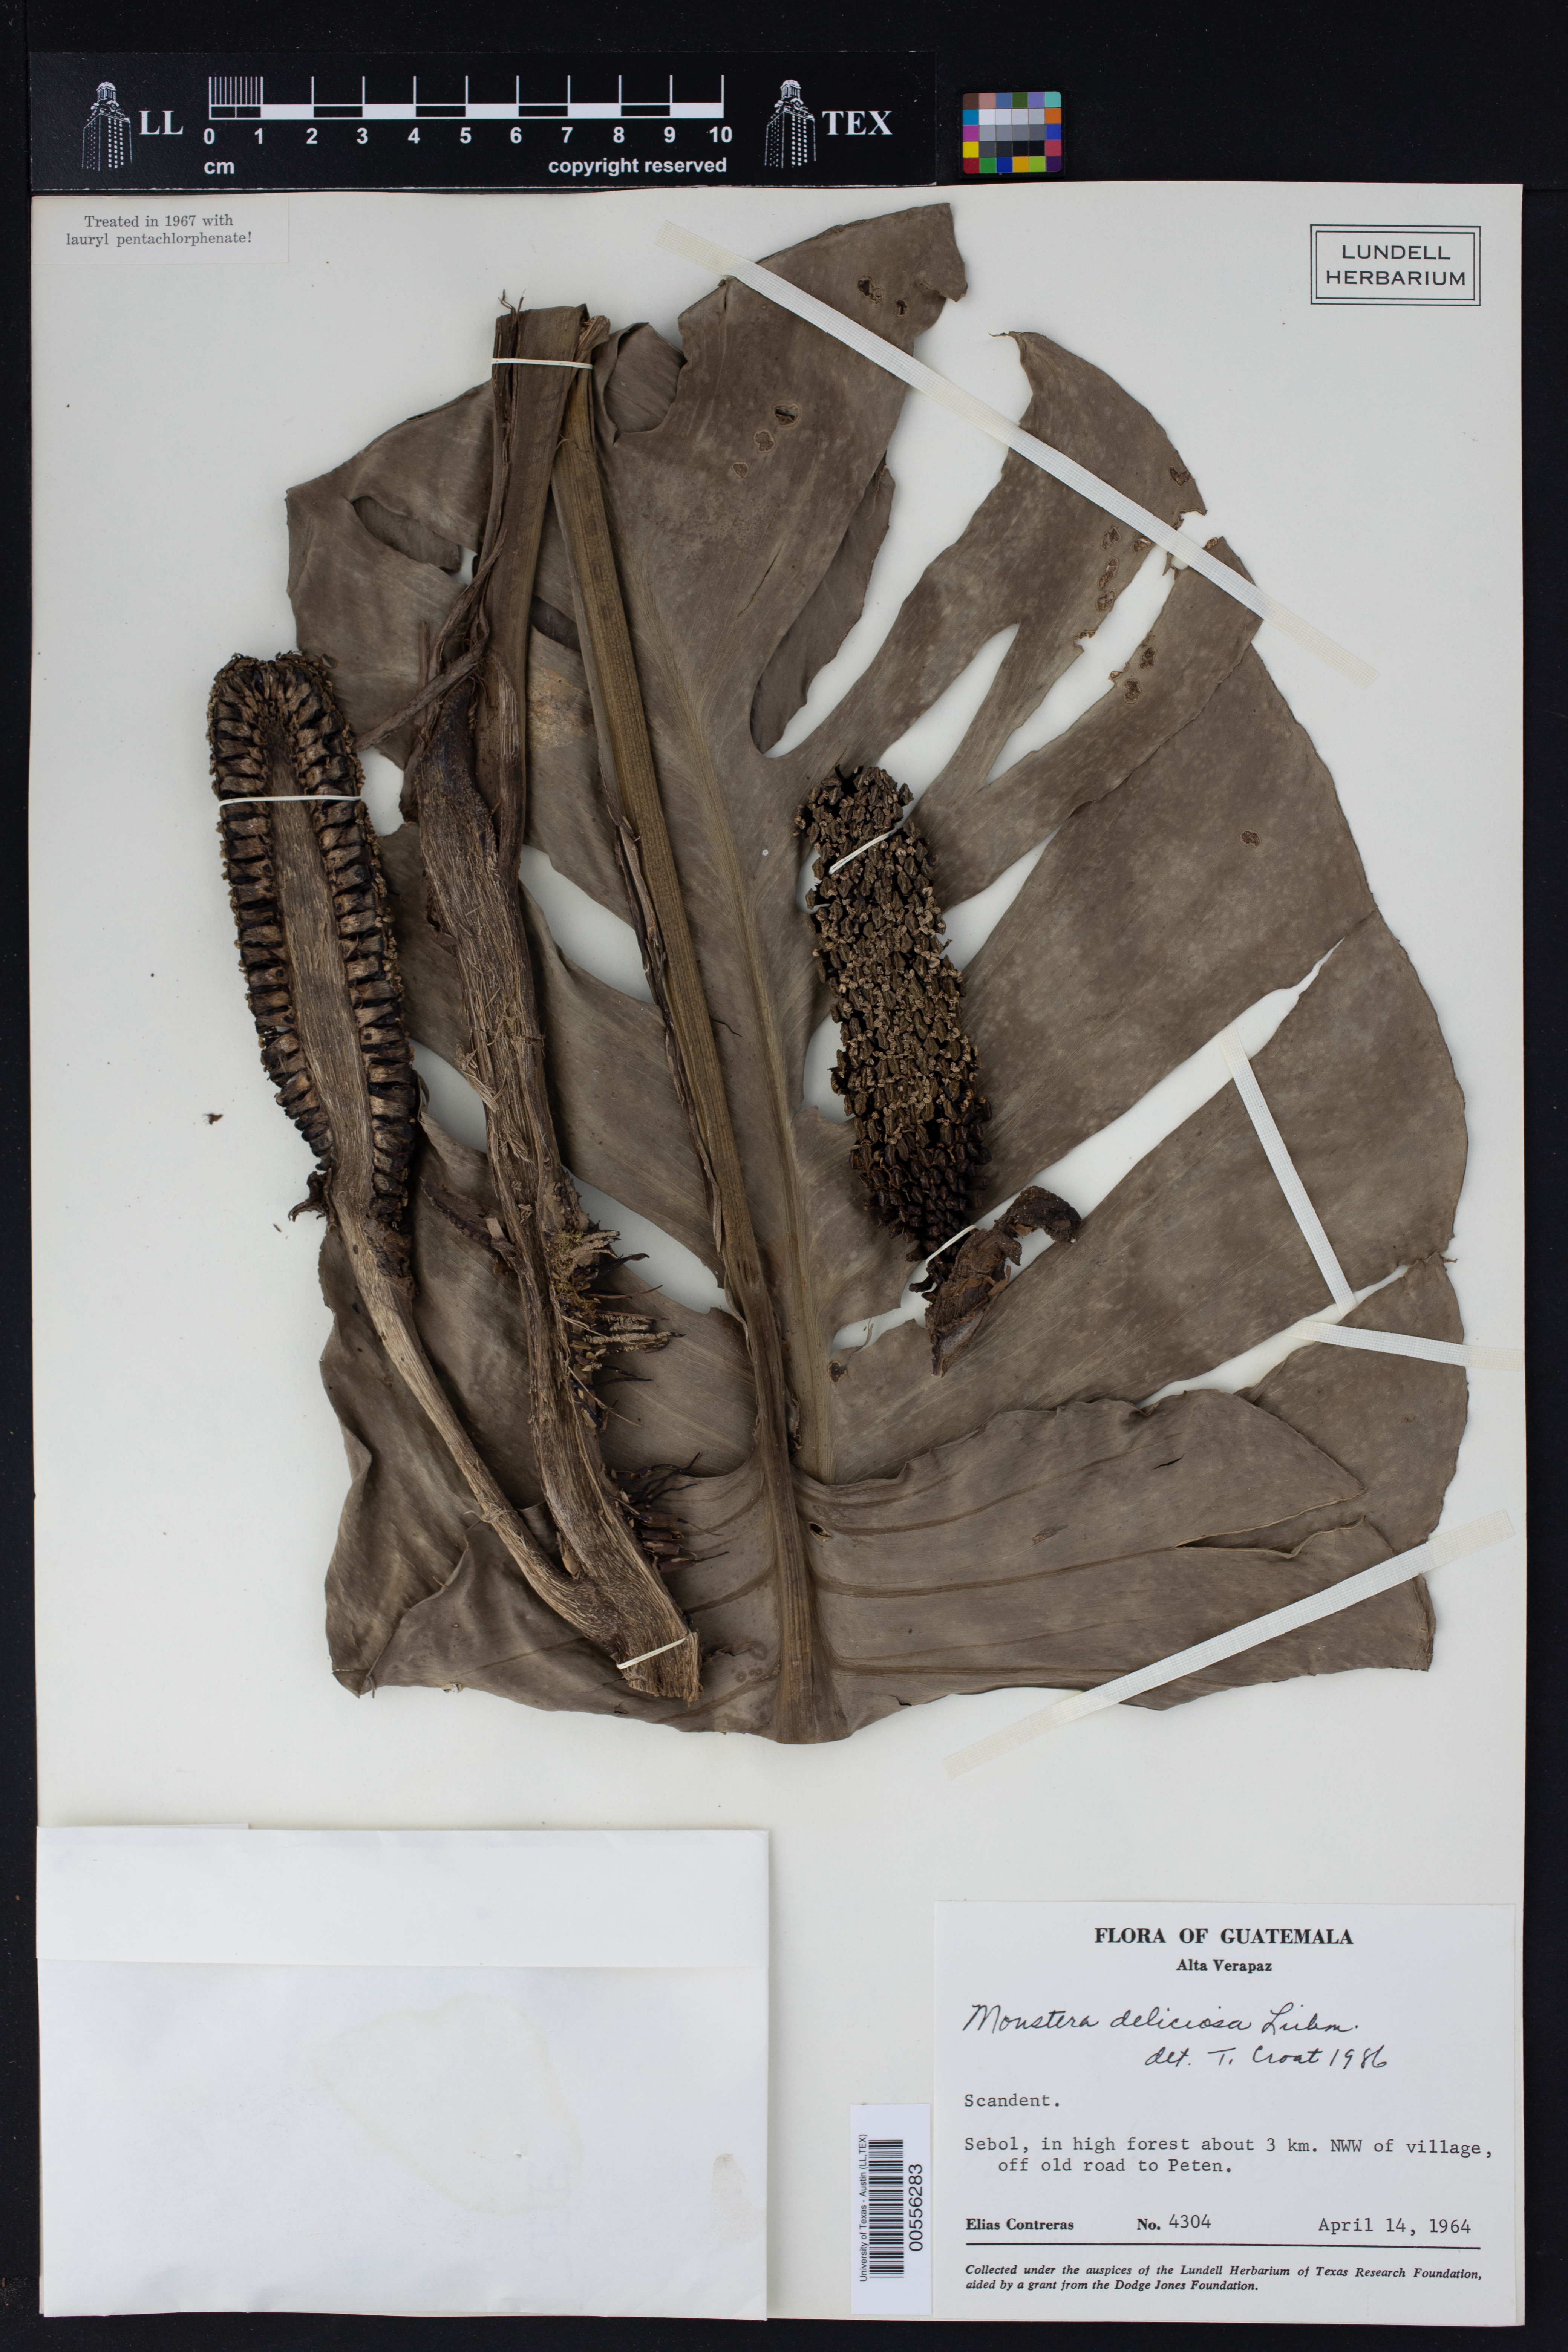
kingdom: Plantae
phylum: Tracheophyta
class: Liliopsida
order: Alismatales
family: Araceae
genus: Monstera
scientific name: Monstera deliciosa
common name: Cut-leaf-philodendron
